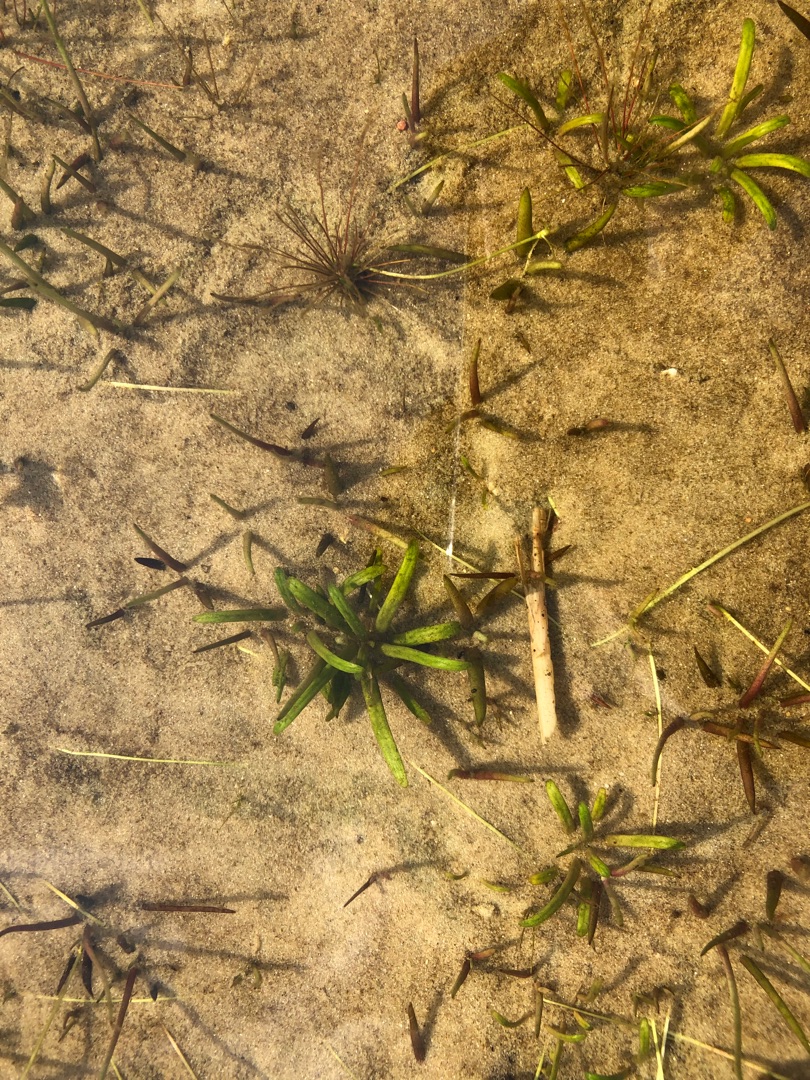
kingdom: Plantae
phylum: Tracheophyta
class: Magnoliopsida
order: Asterales
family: Campanulaceae
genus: Lobelia
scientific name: Lobelia dortmanna
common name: Tvepibet lobelie
